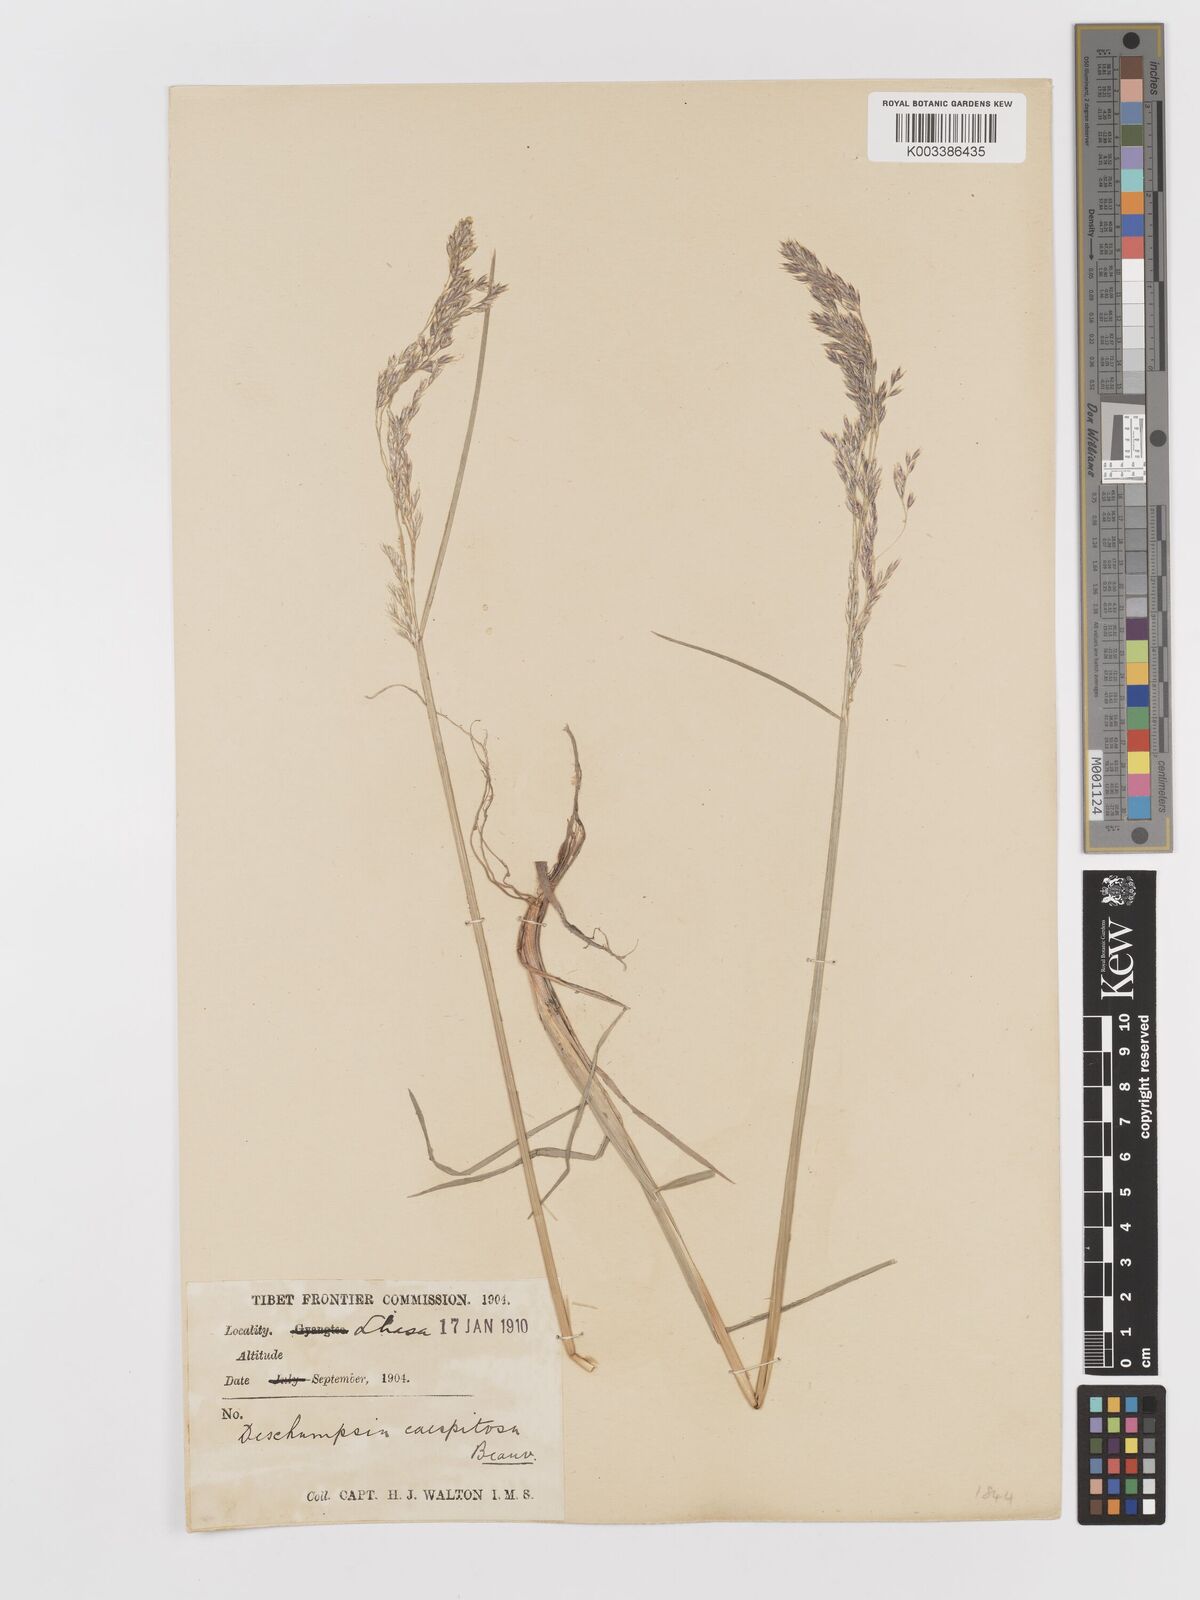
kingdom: Plantae
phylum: Tracheophyta
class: Liliopsida
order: Poales
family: Poaceae
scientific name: Poaceae
